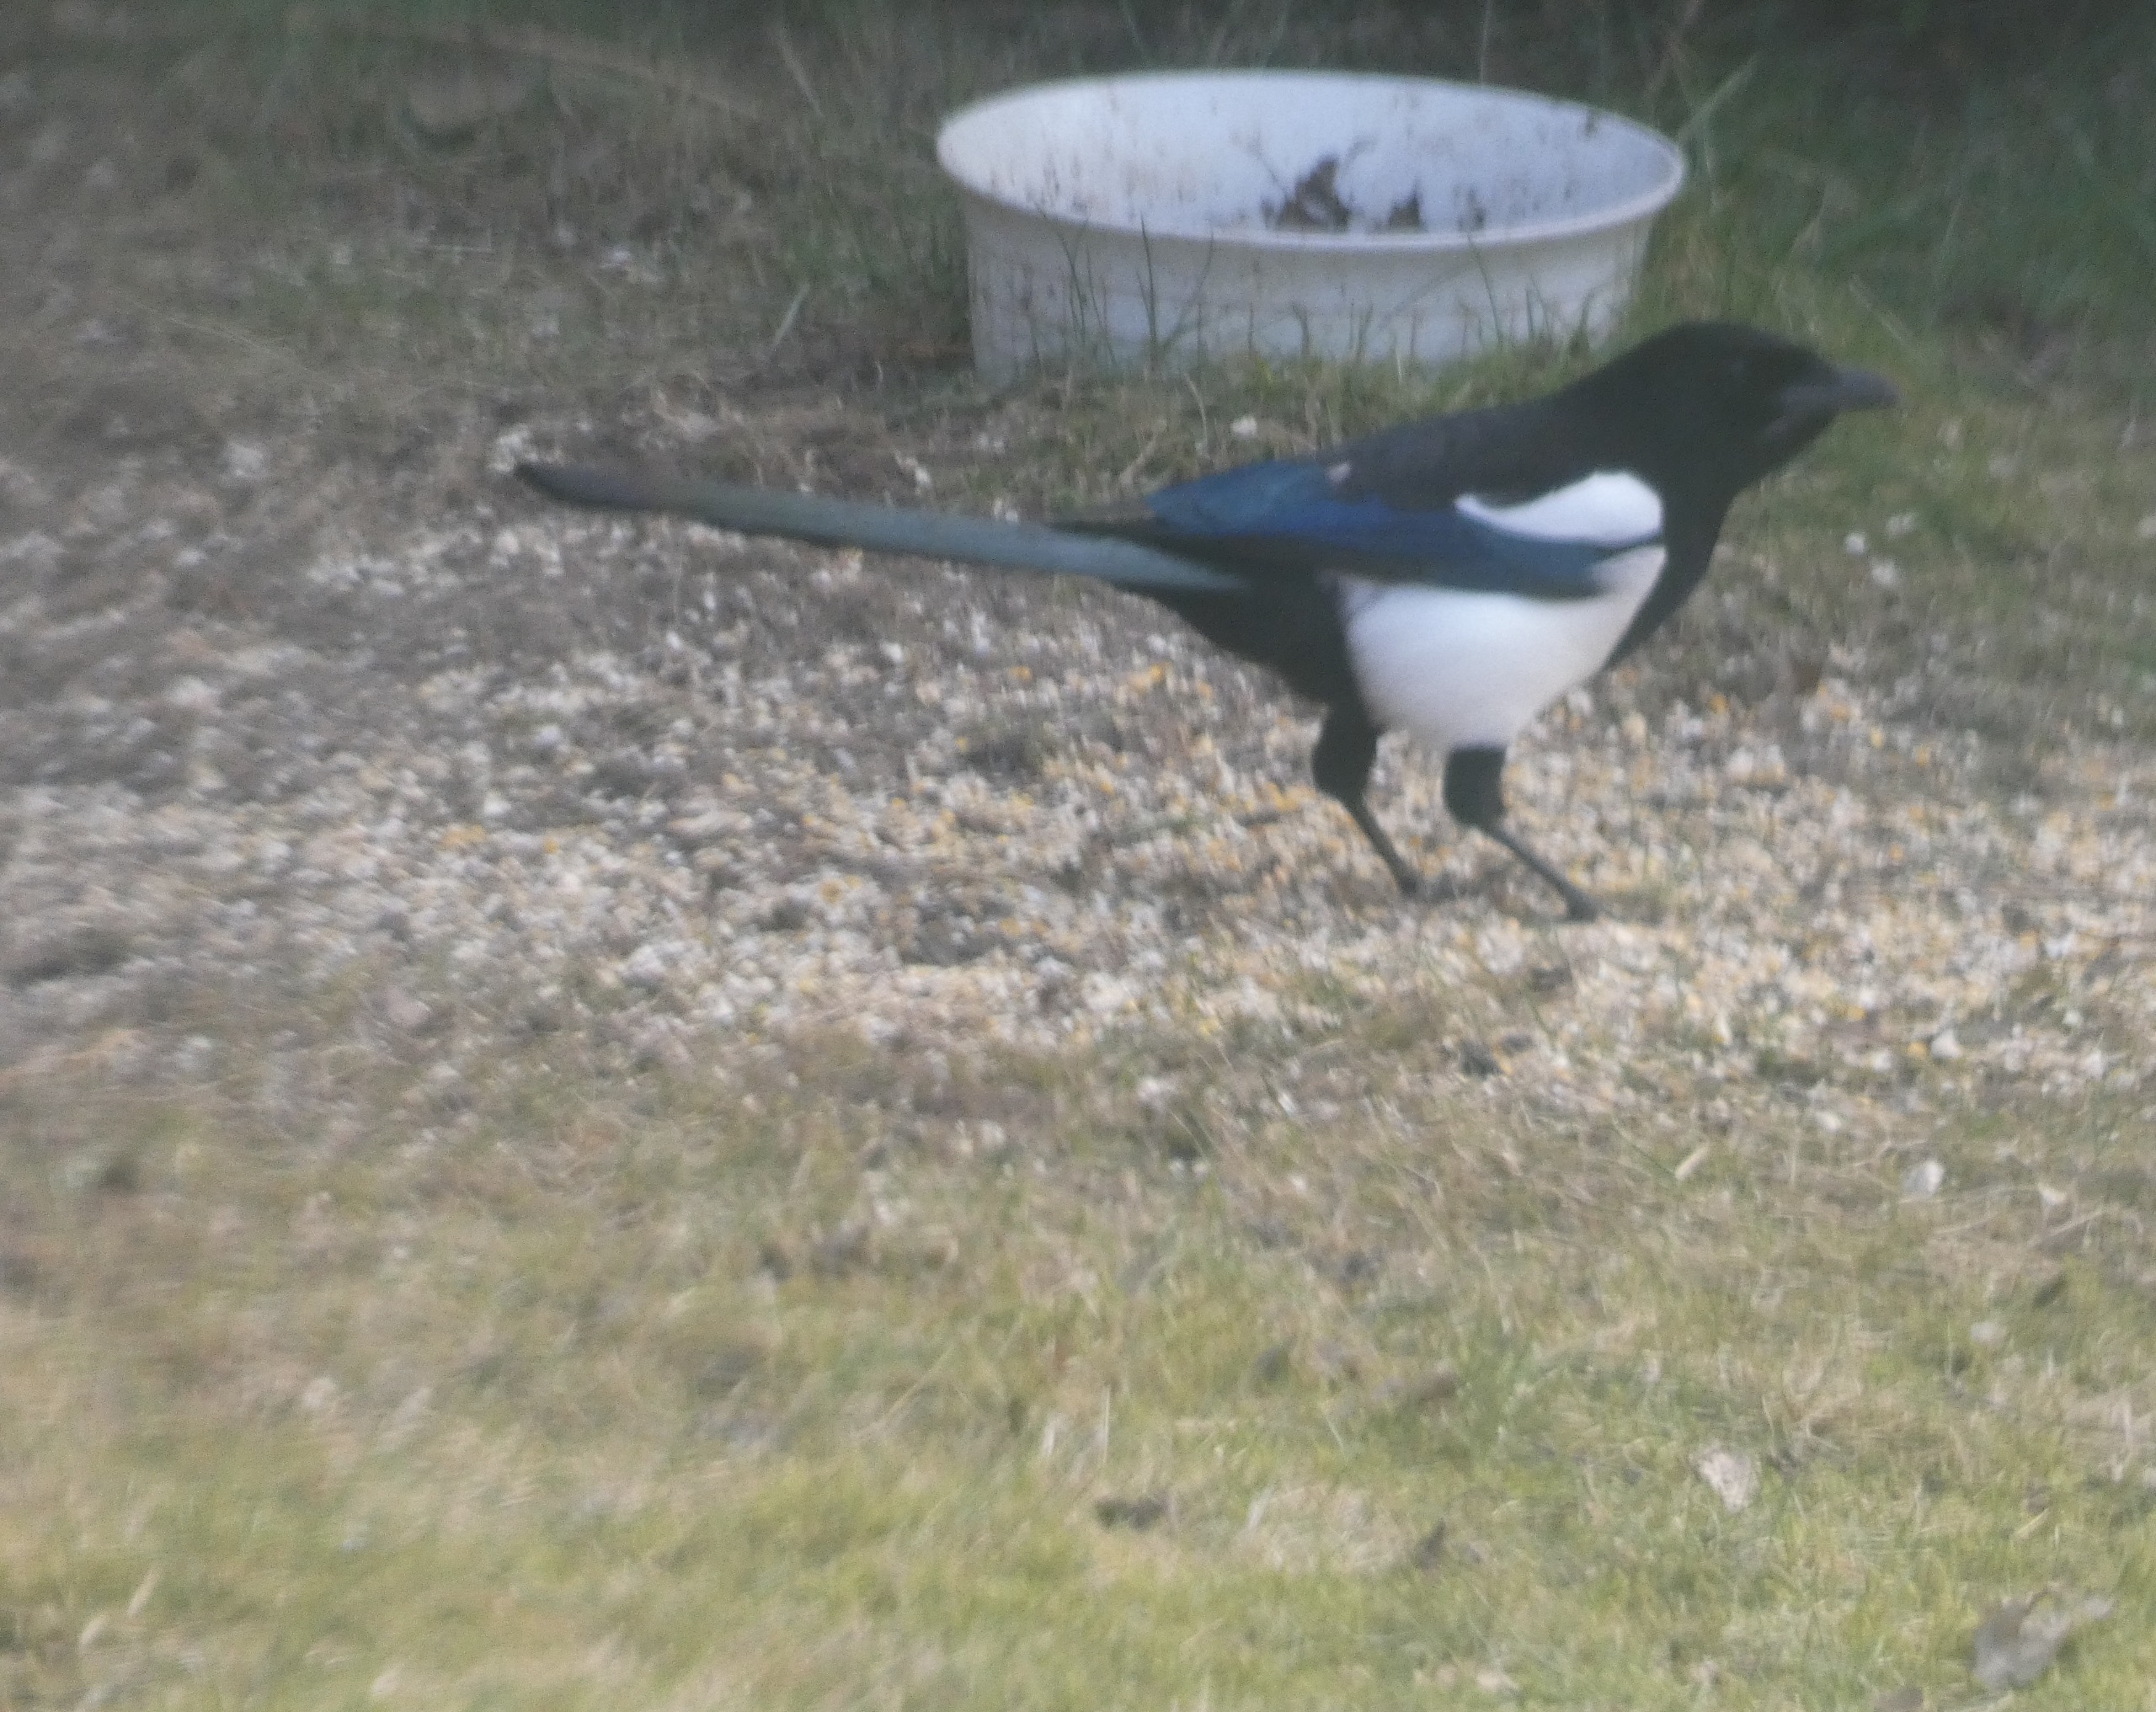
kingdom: Animalia
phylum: Chordata
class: Aves
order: Passeriformes
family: Corvidae
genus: Pica
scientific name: Pica pica
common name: Husskade
